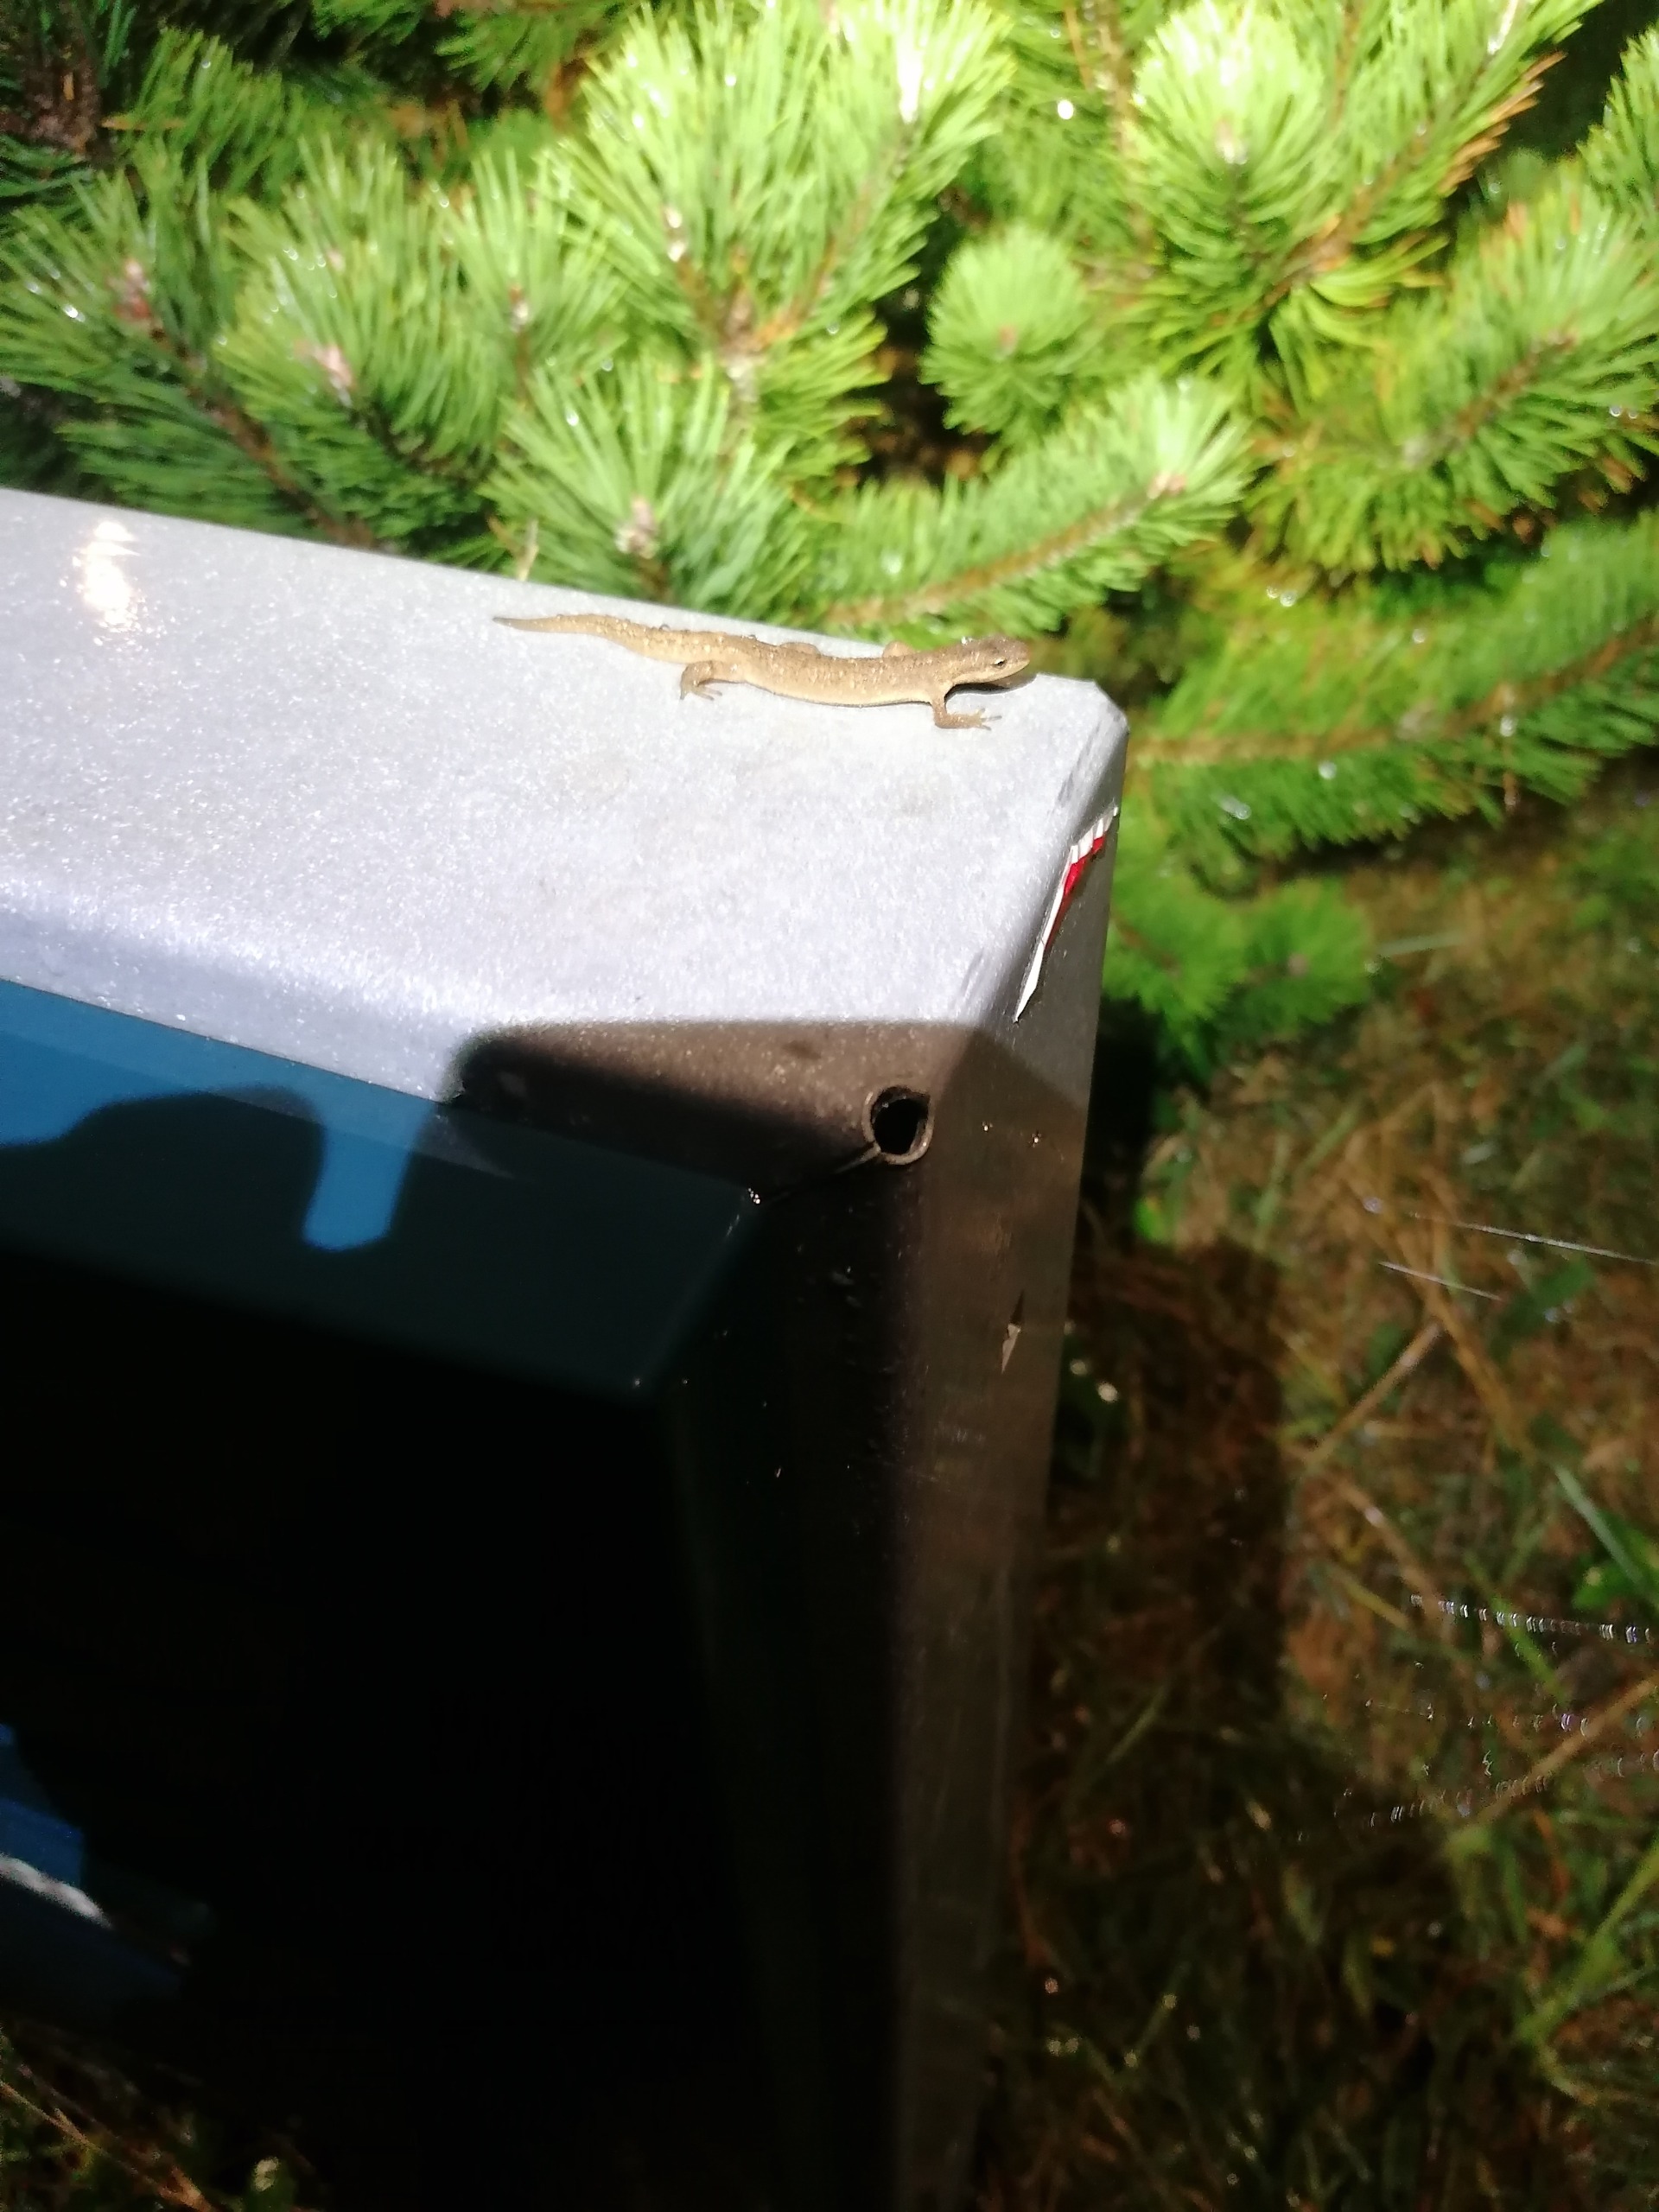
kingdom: Animalia
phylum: Chordata
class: Amphibia
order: Caudata
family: Salamandridae
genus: Lissotriton
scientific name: Lissotriton vulgaris
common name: Lille vandsalamander
